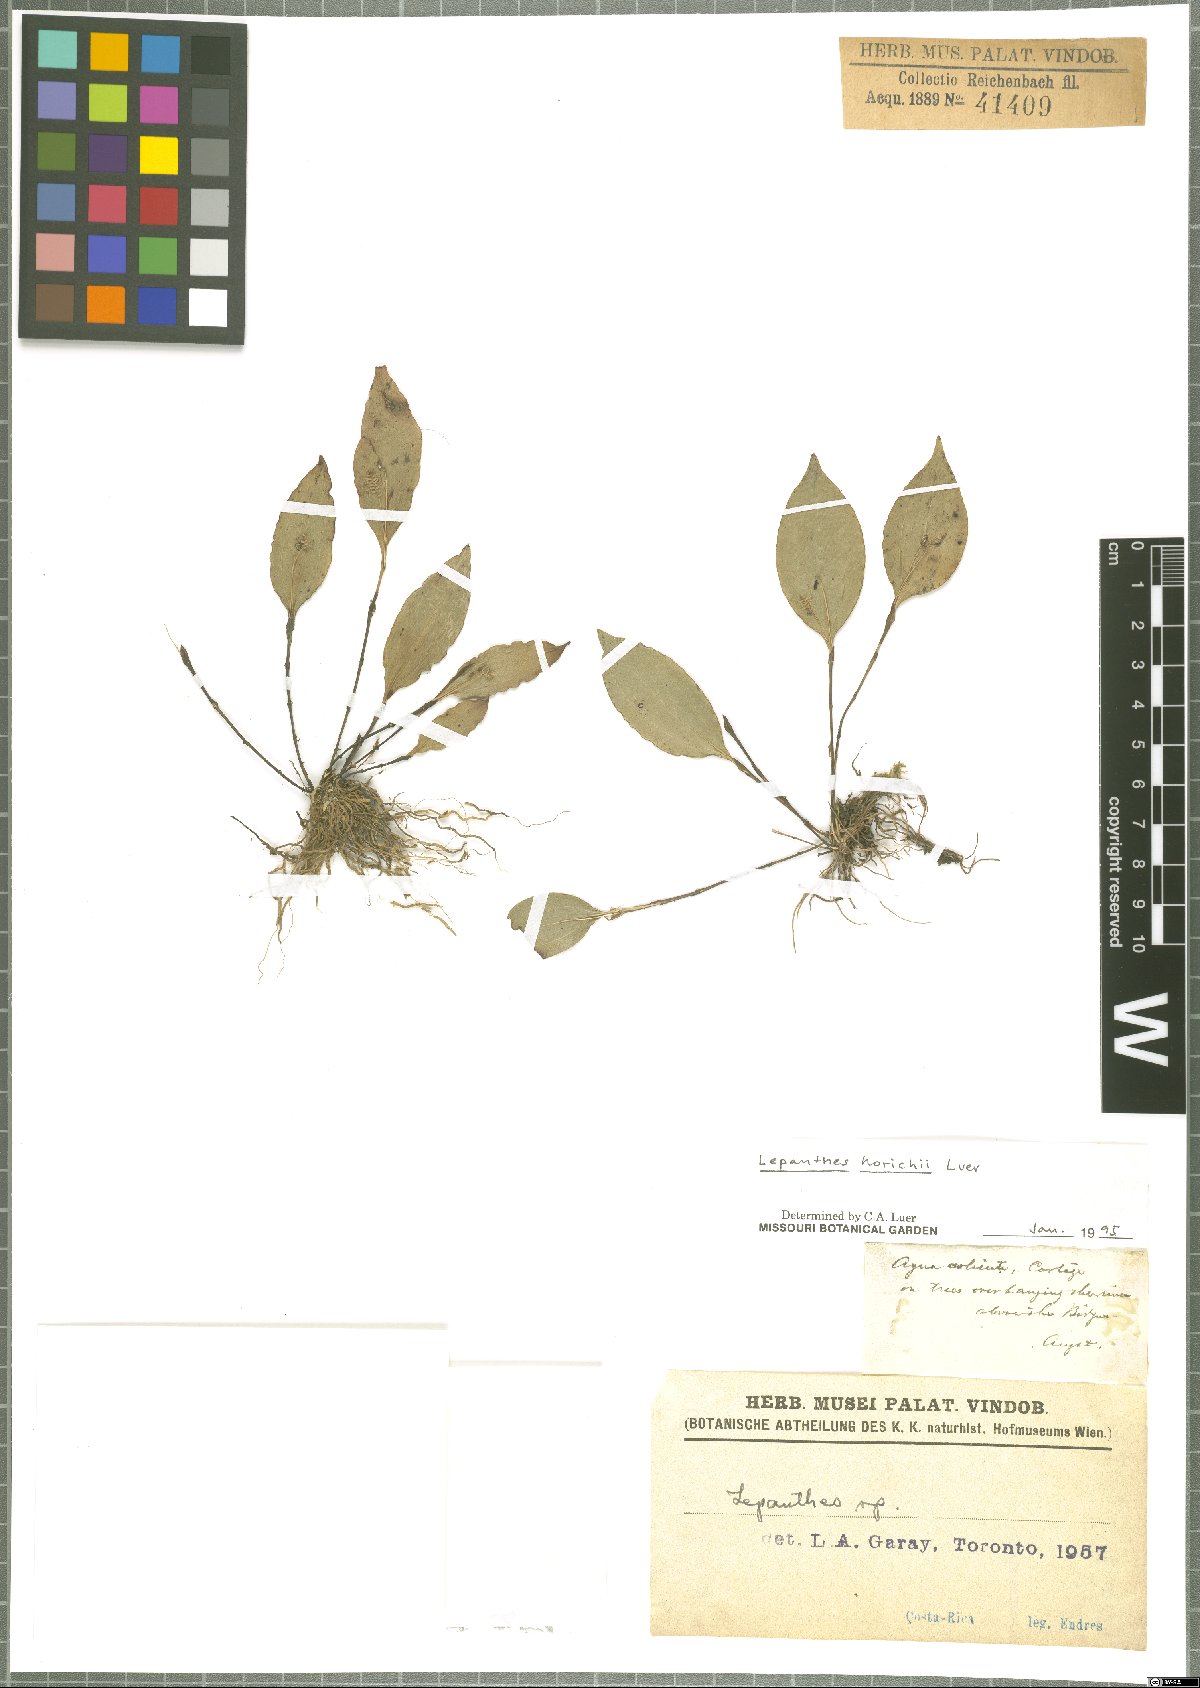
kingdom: Plantae
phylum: Tracheophyta
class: Liliopsida
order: Asparagales
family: Orchidaceae
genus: Lepanthes
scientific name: Lepanthes horichii
